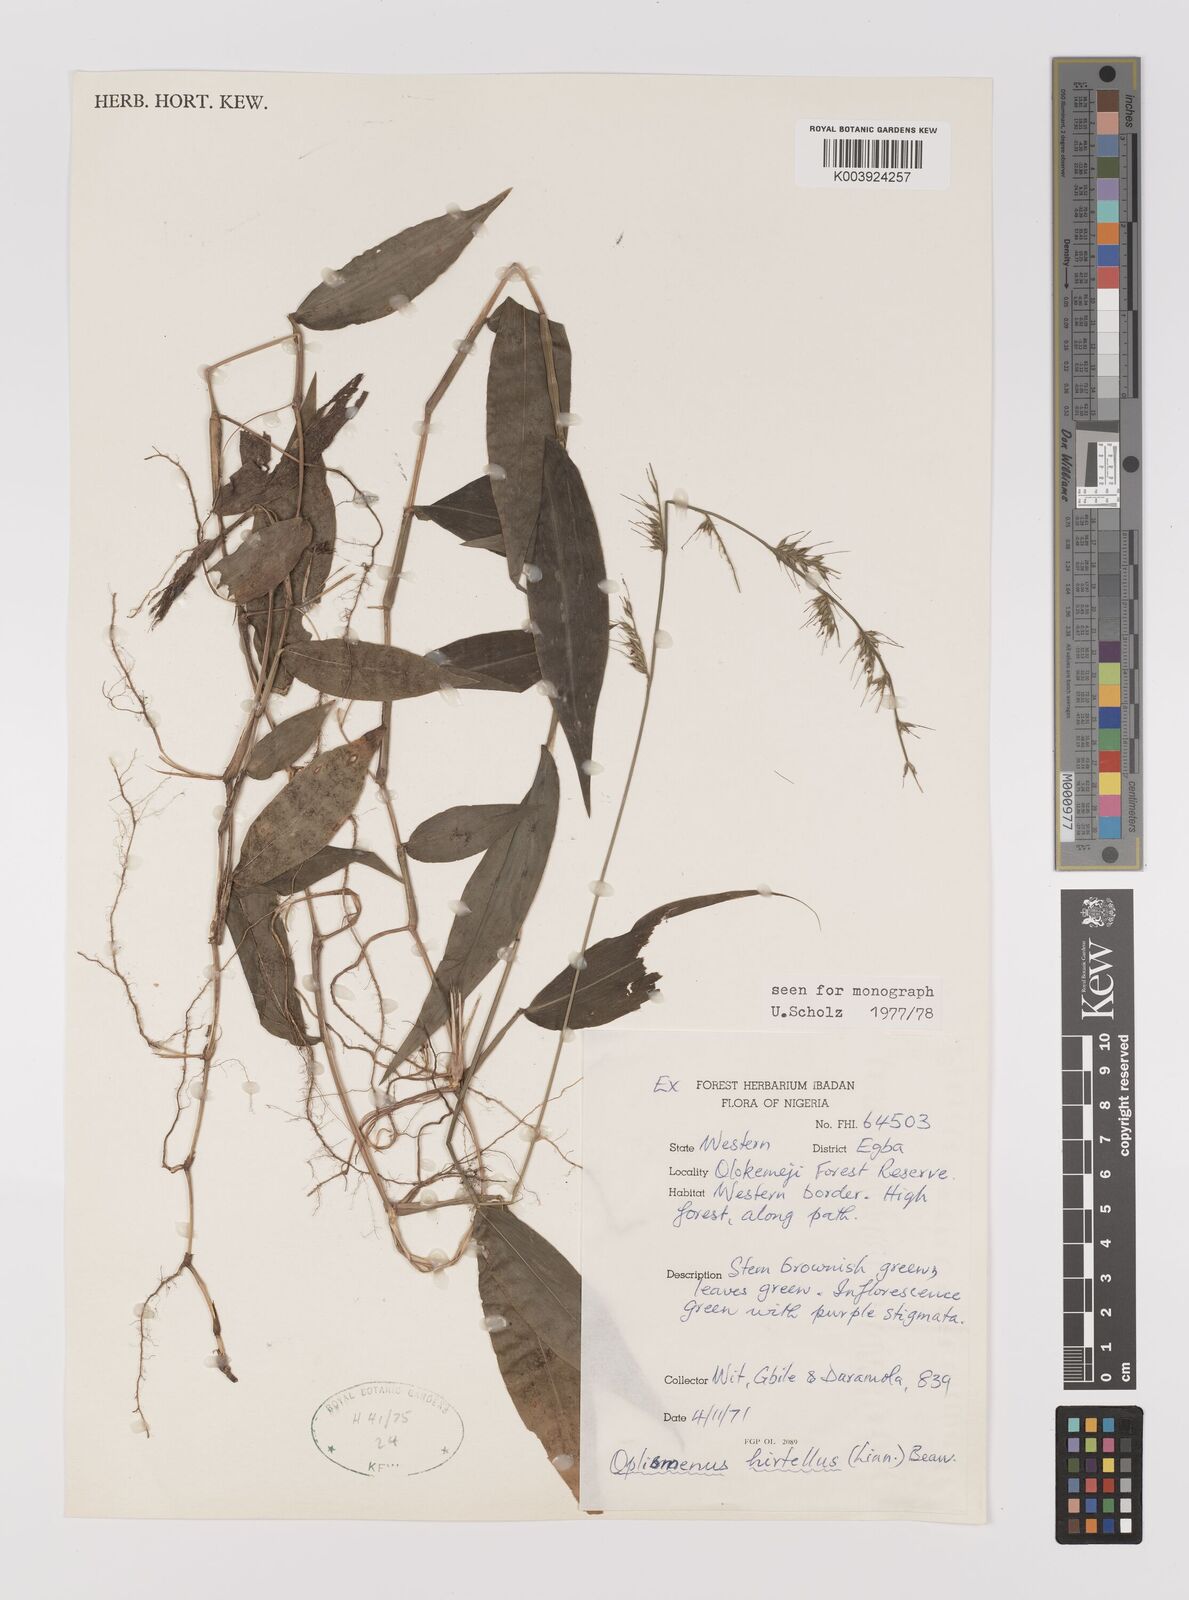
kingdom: Plantae
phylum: Tracheophyta
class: Liliopsida
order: Poales
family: Poaceae
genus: Oplismenus
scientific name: Oplismenus hirtellus
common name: Basketgrass
